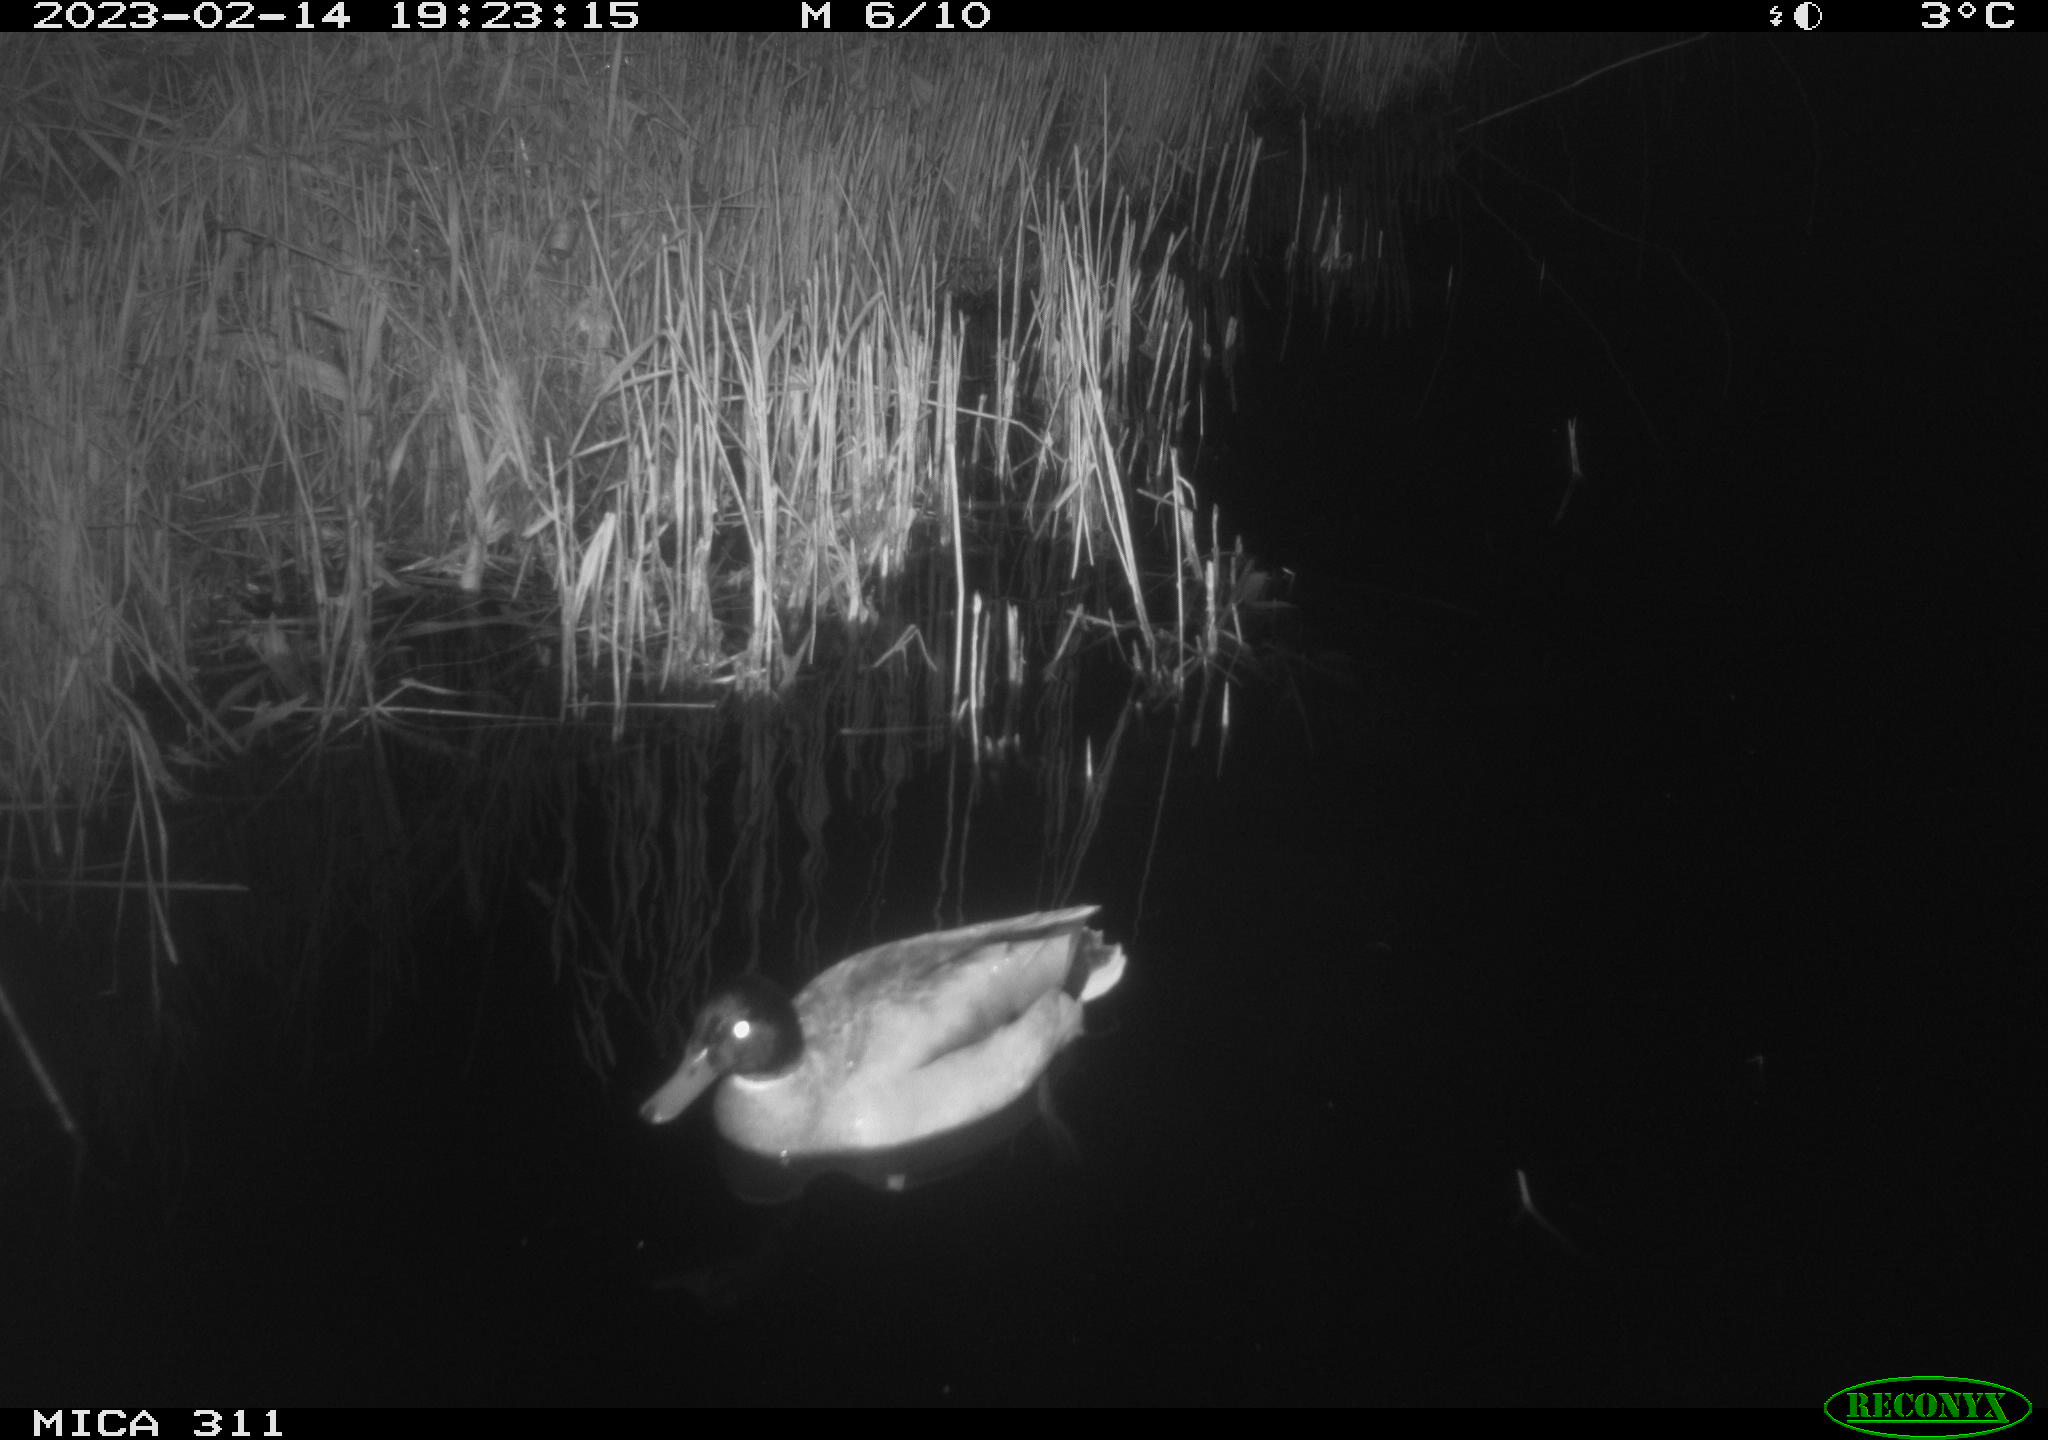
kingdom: Animalia
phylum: Chordata
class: Aves
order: Anseriformes
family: Anatidae
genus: Anas
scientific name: Anas
